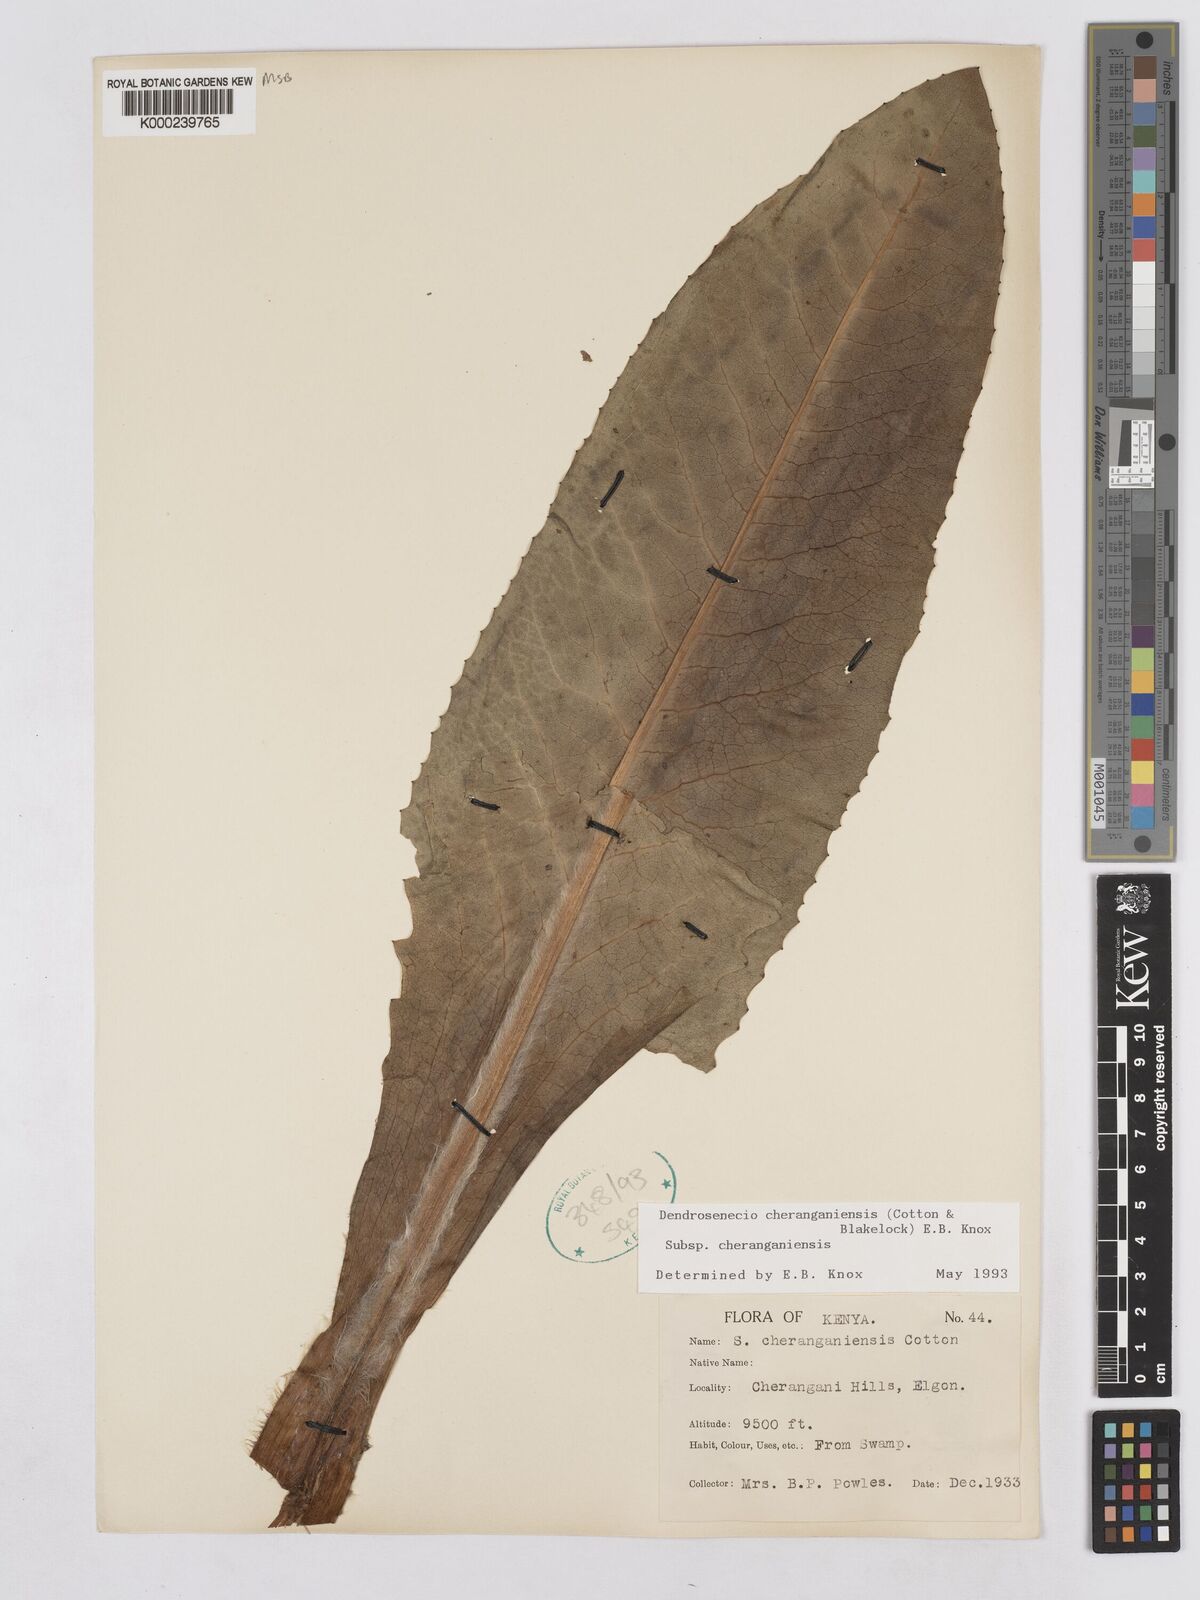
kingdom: Plantae
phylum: Tracheophyta
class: Magnoliopsida
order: Asterales
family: Asteraceae
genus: Dendrosenecio
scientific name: Dendrosenecio cheranganiensis
